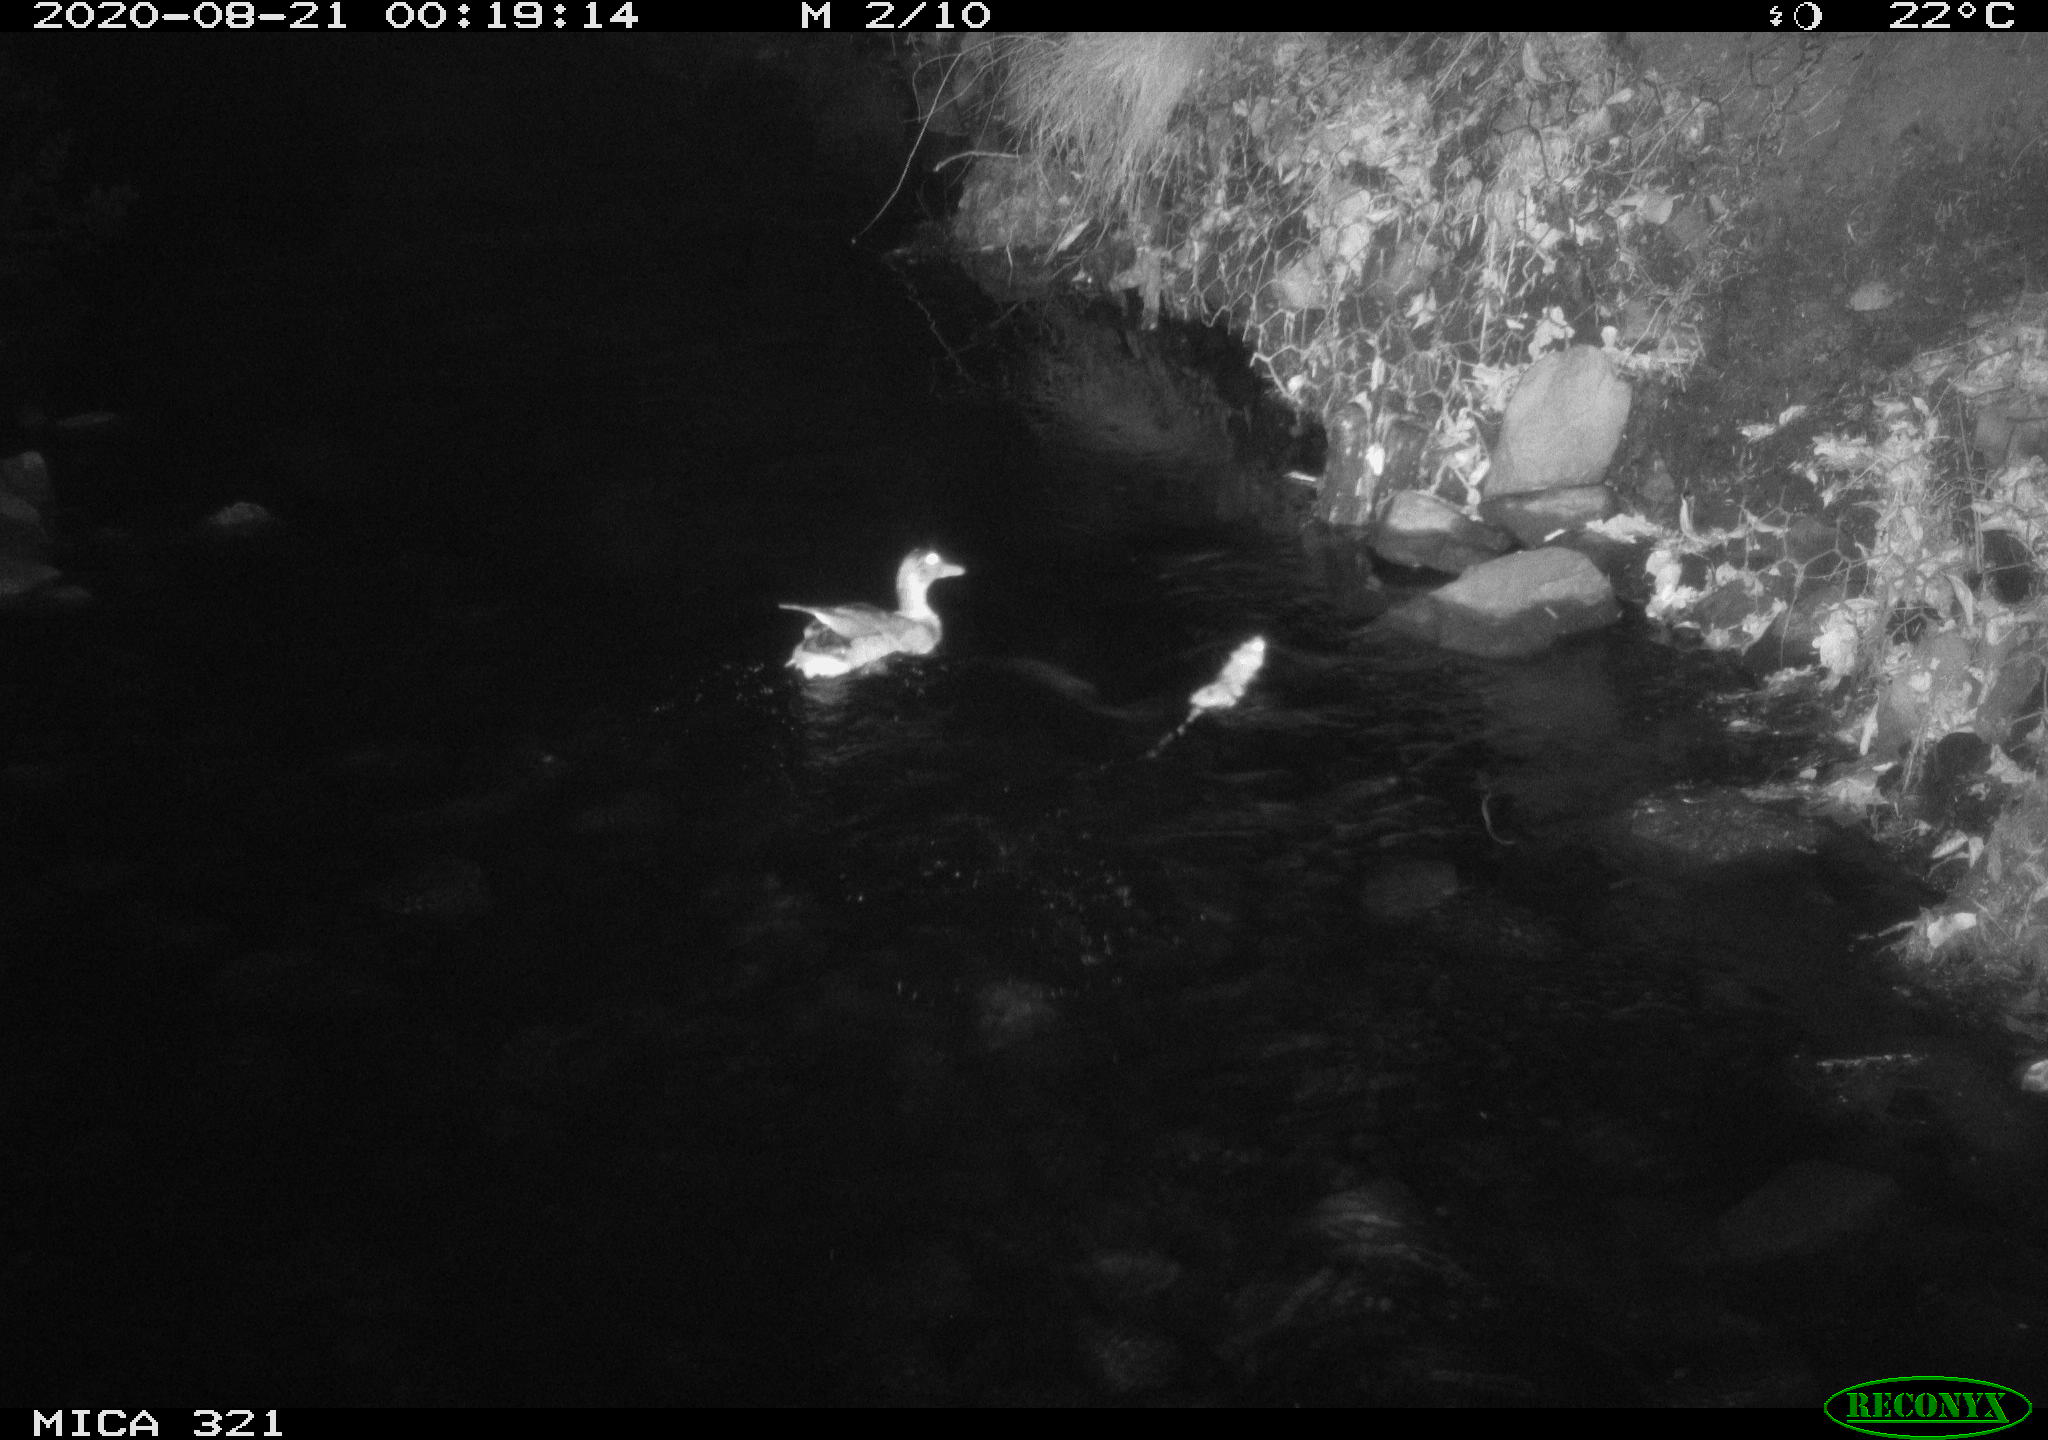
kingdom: Animalia
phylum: Chordata
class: Aves
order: Anseriformes
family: Anatidae
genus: Anas
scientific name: Anas platyrhynchos
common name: Mallard
